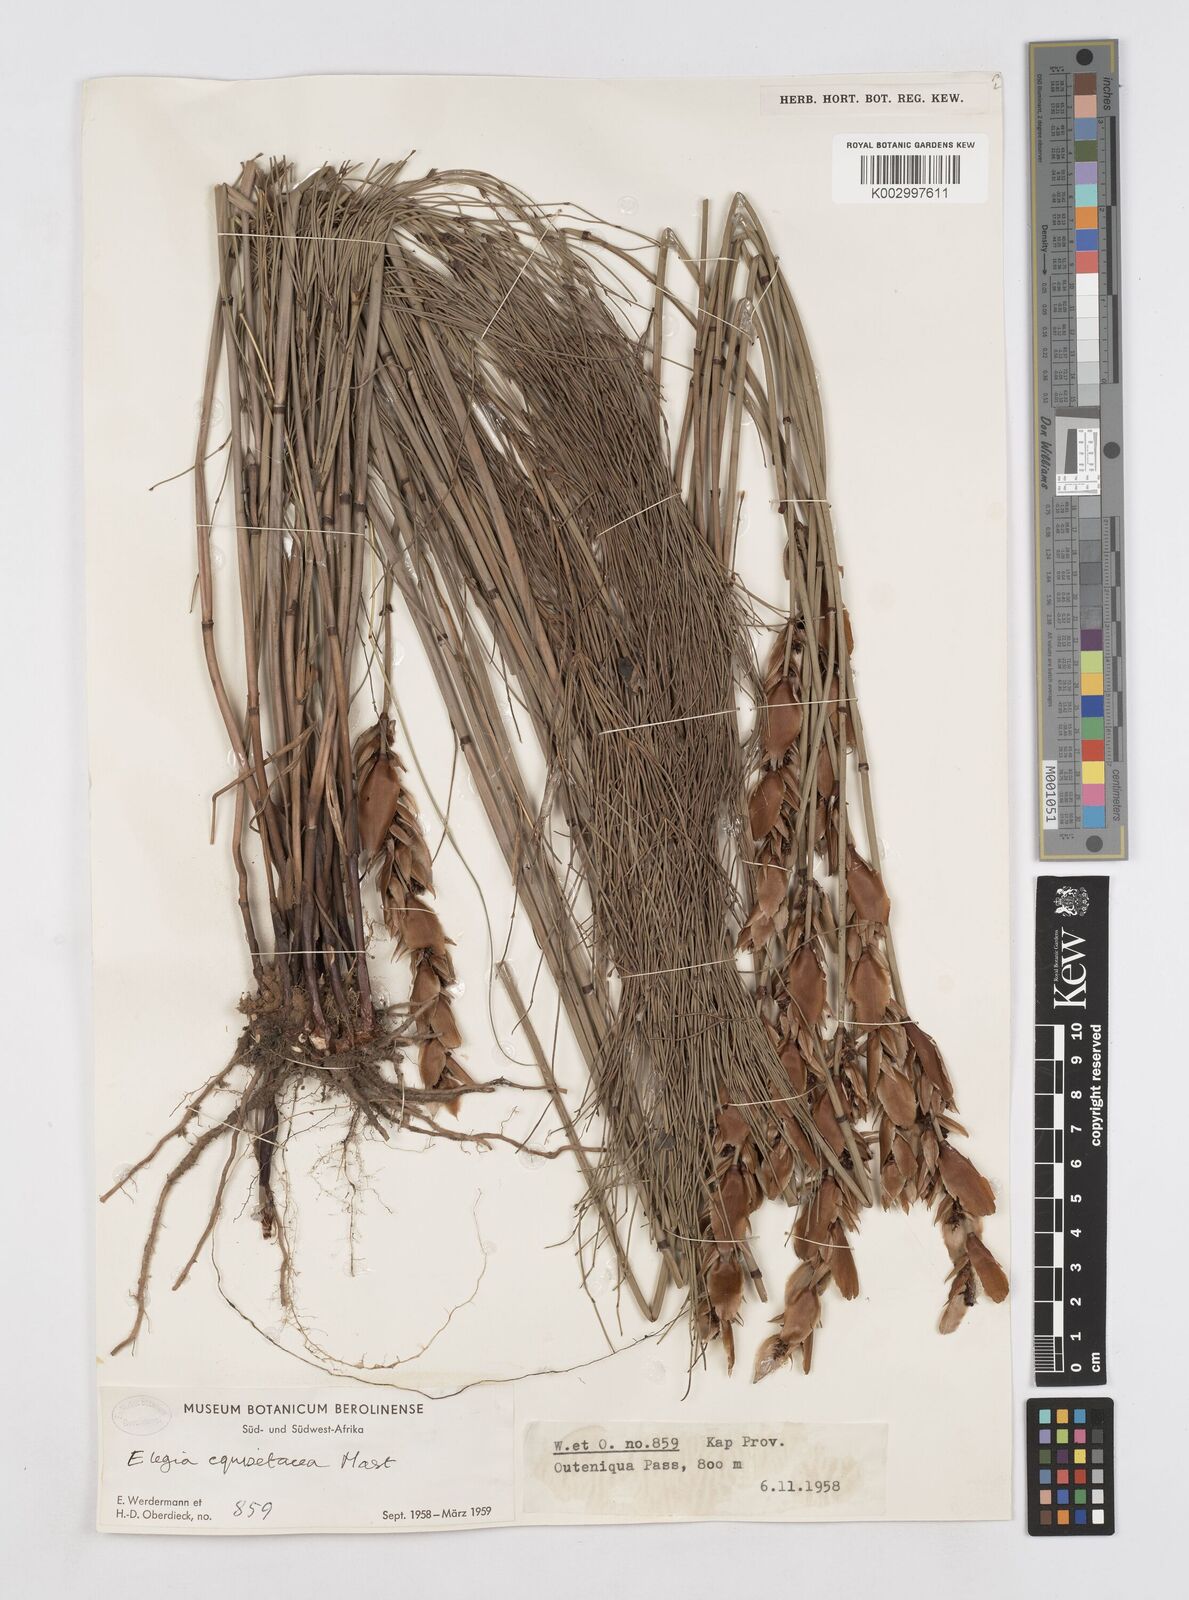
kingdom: Plantae
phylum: Tracheophyta
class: Liliopsida
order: Poales
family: Restionaceae
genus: Elegia
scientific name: Elegia equisetacea
